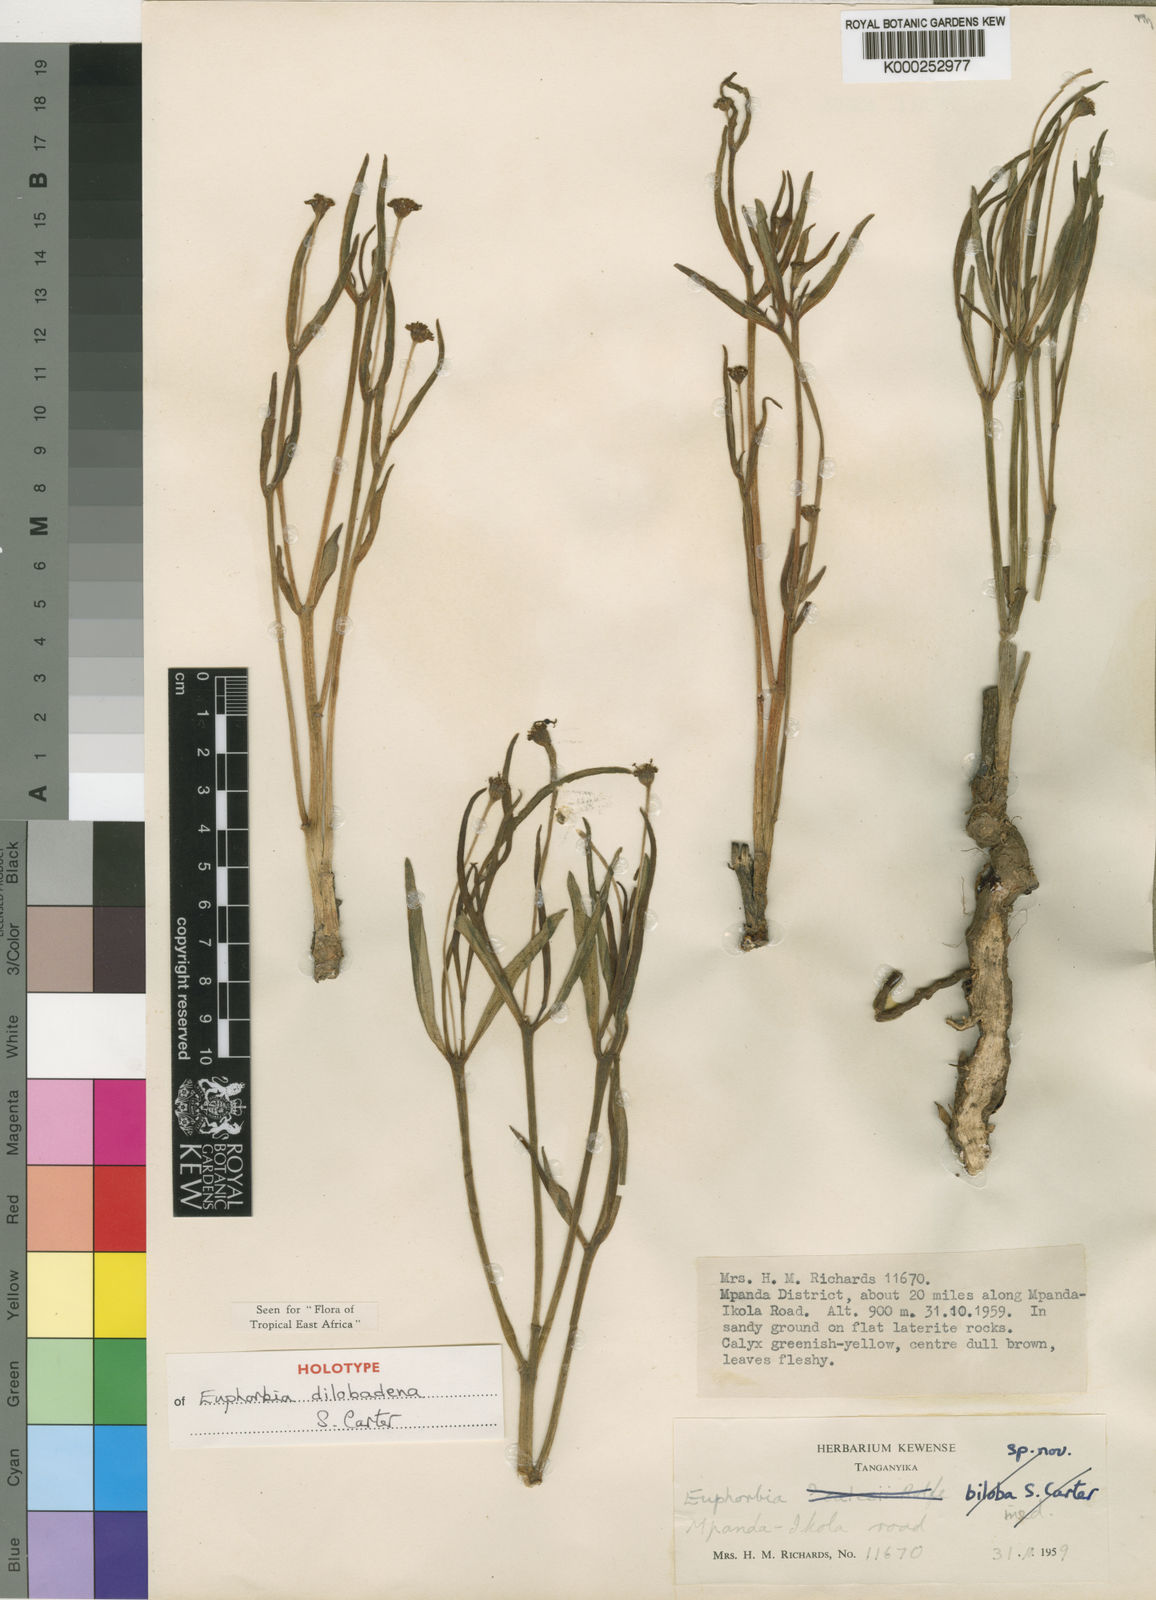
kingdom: Plantae
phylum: Tracheophyta
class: Magnoliopsida
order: Malpighiales
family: Euphorbiaceae
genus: Euphorbia
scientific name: Euphorbia dilobadena
